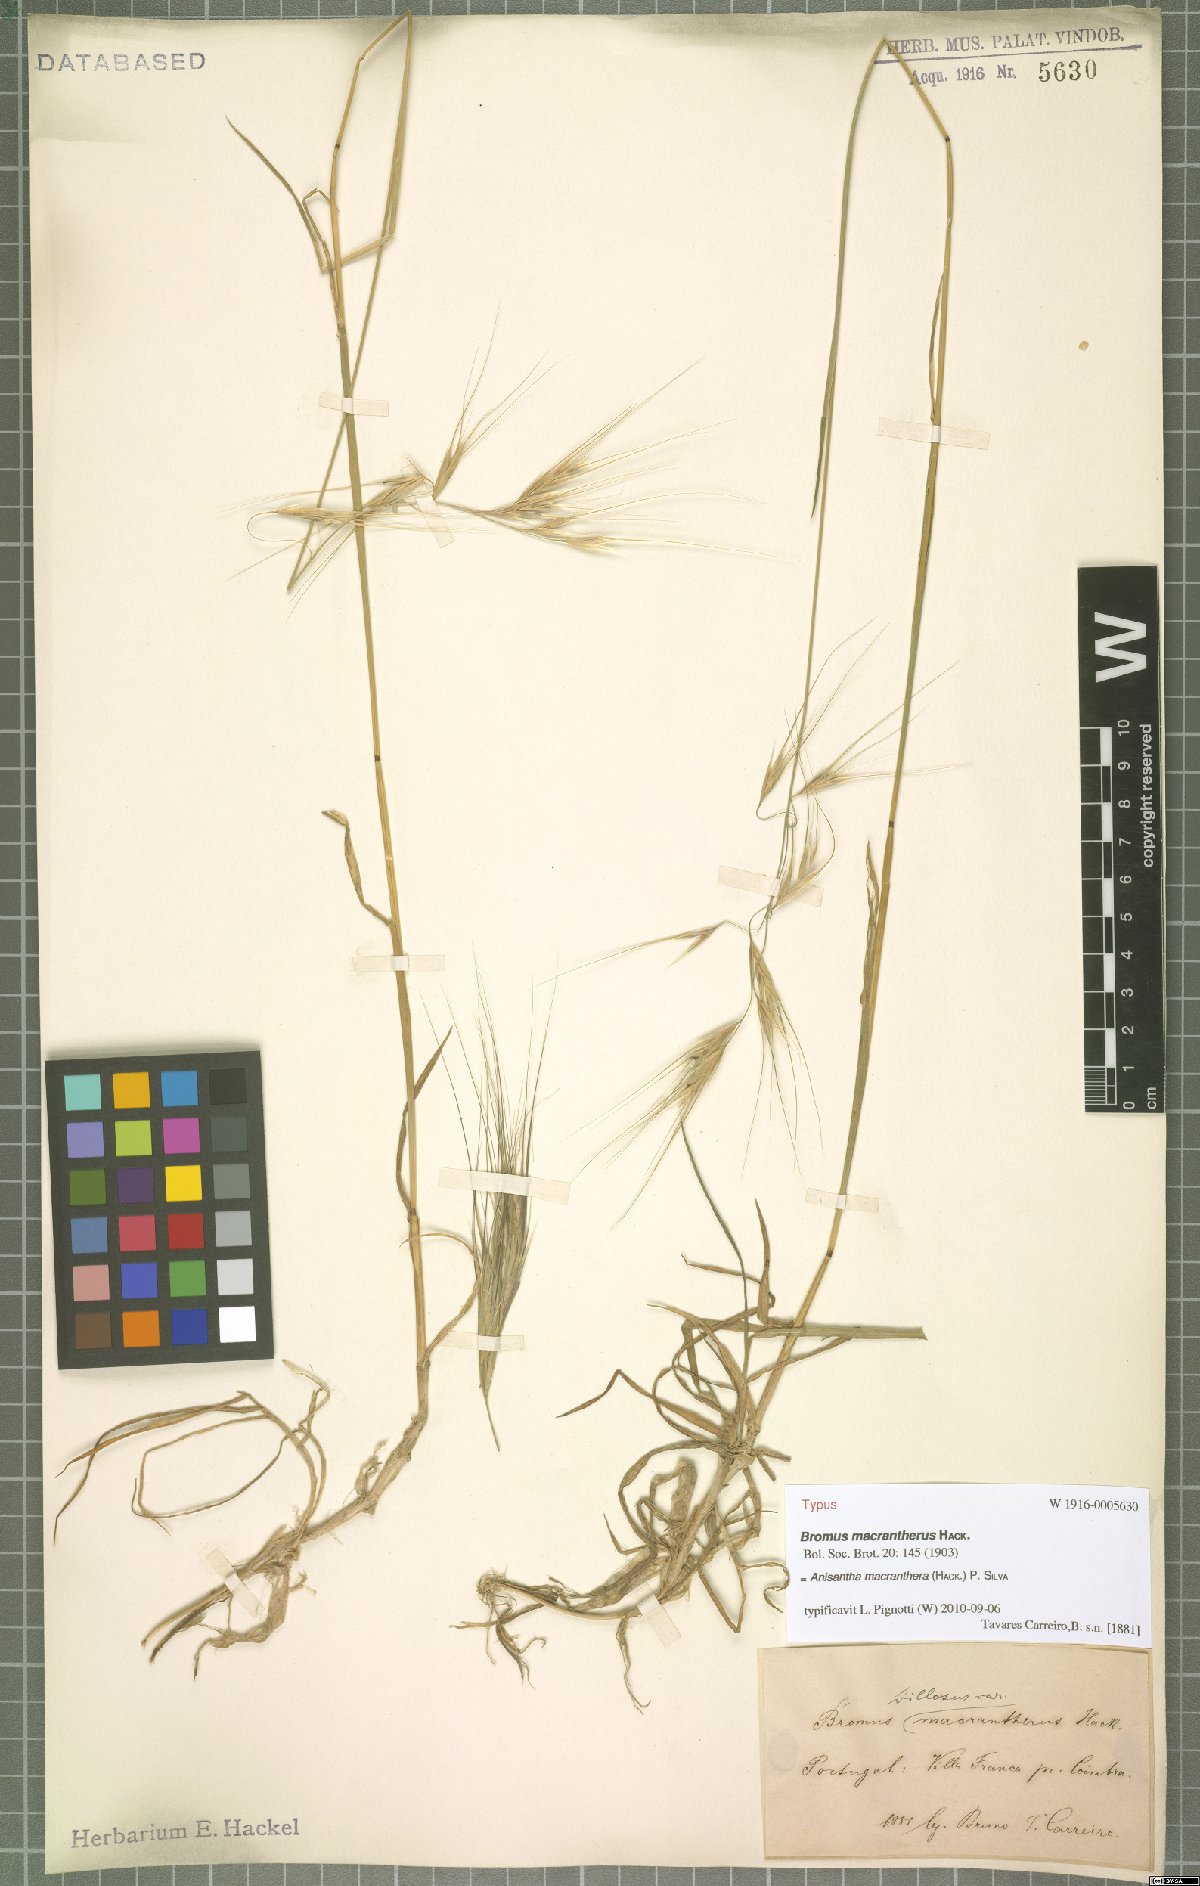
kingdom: Plantae
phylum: Tracheophyta
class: Liliopsida
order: Poales
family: Poaceae
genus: Bromus
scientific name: Bromus diandrus
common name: Ripgut brome
